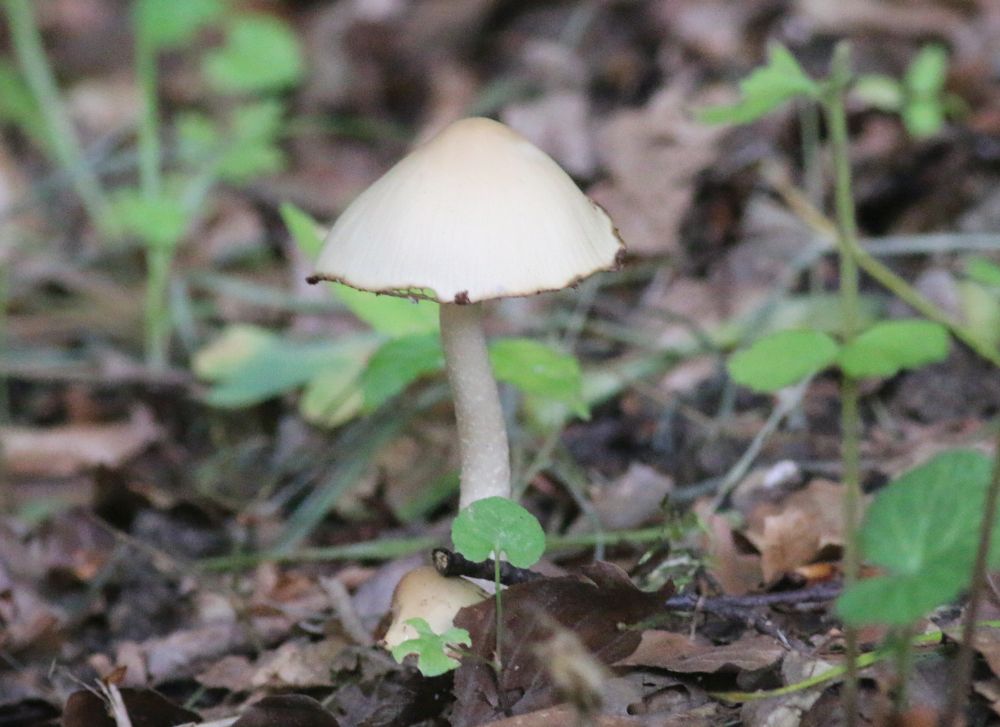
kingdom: Fungi
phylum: Basidiomycota
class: Agaricomycetes
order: Agaricales
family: Psathyrellaceae
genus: Candolleomyces
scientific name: Candolleomyces candolleanus
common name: Candolles mørkhat
